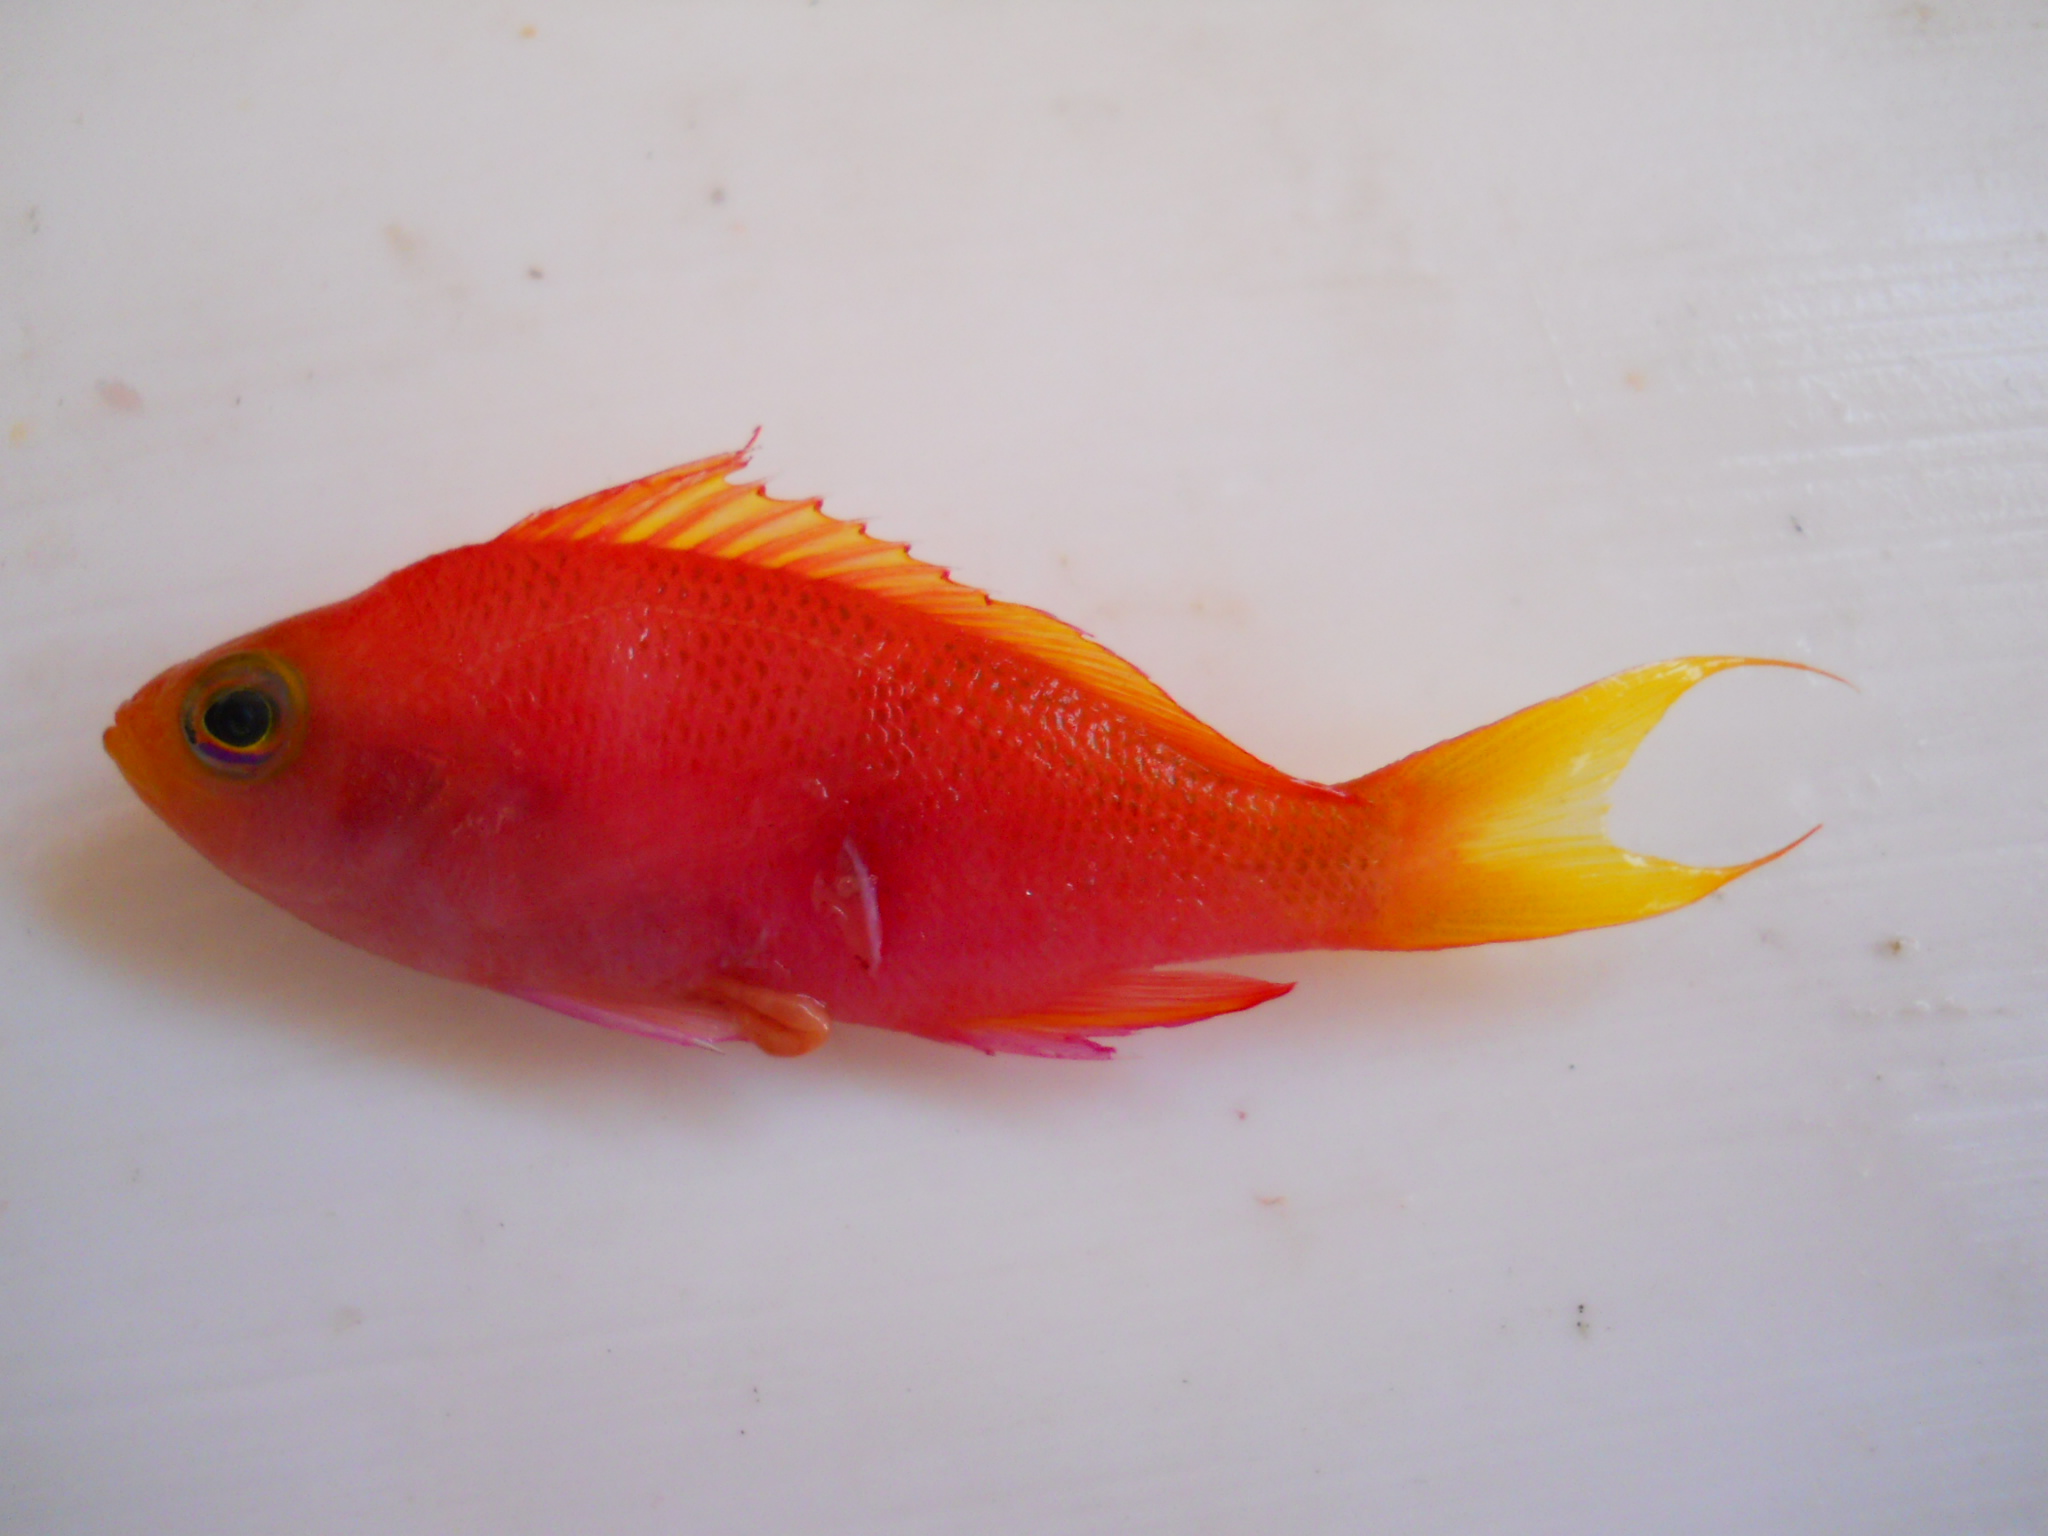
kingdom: Animalia
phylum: Chordata
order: Perciformes
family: Serranidae
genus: Pseudanthias
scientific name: Pseudanthias pulcherrimus
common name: Resplendent goldie
